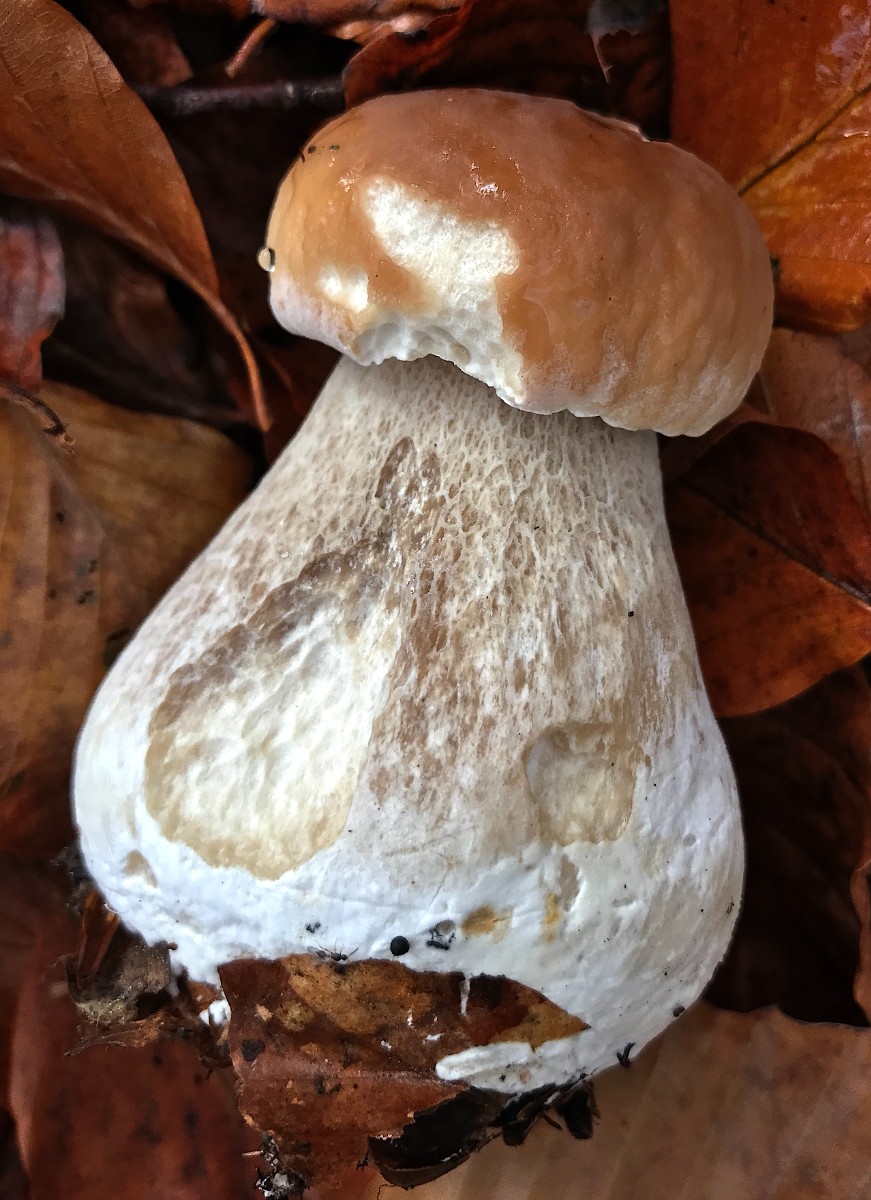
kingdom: Fungi
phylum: Basidiomycota
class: Agaricomycetes
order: Boletales
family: Boletaceae
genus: Boletus
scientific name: Boletus edulis
